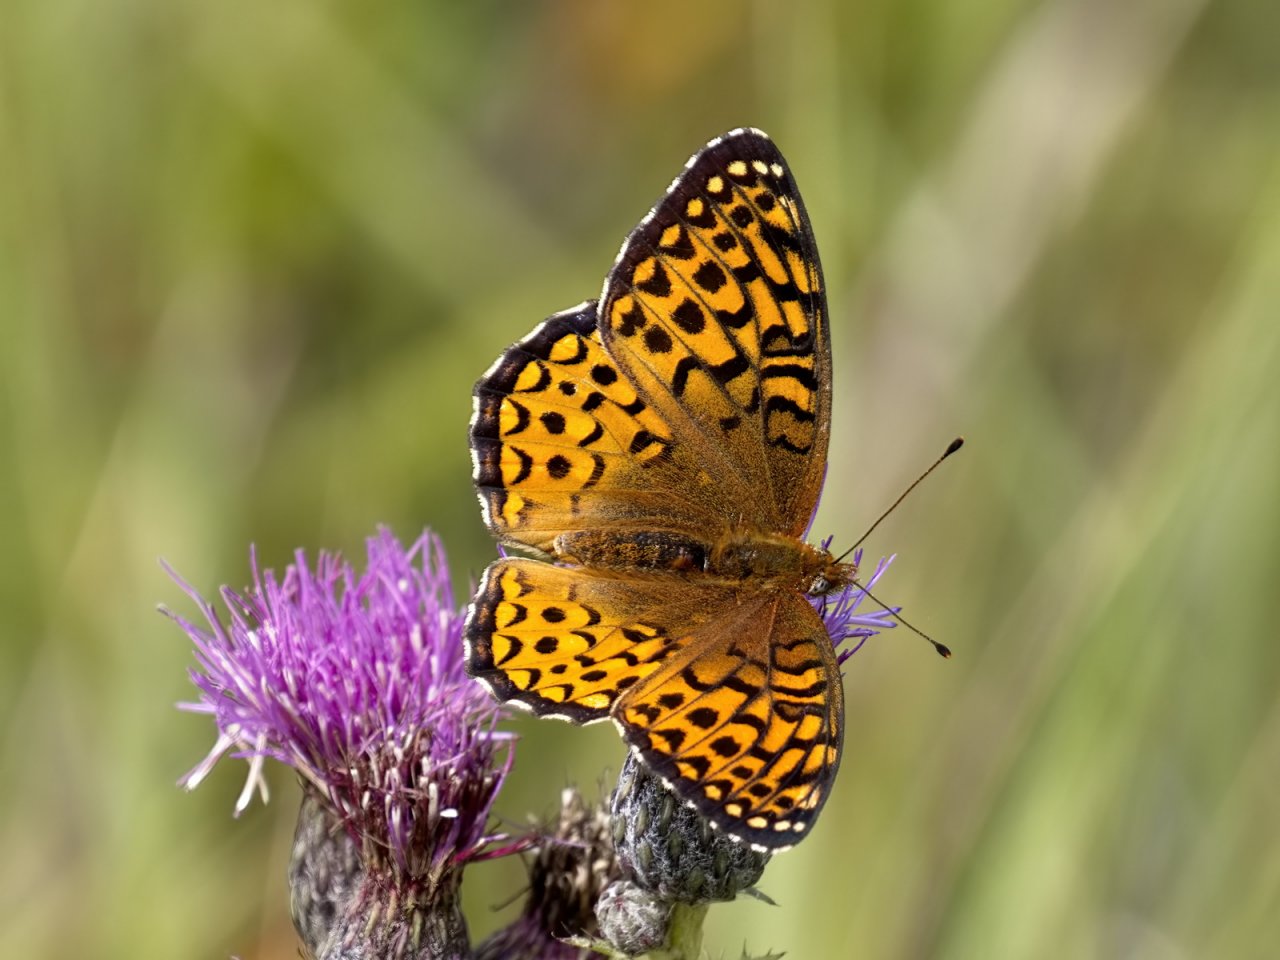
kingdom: Animalia
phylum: Arthropoda
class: Insecta
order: Lepidoptera
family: Nymphalidae
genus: Speyeria
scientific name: Speyeria atlantis
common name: Atlantis Fritillary
